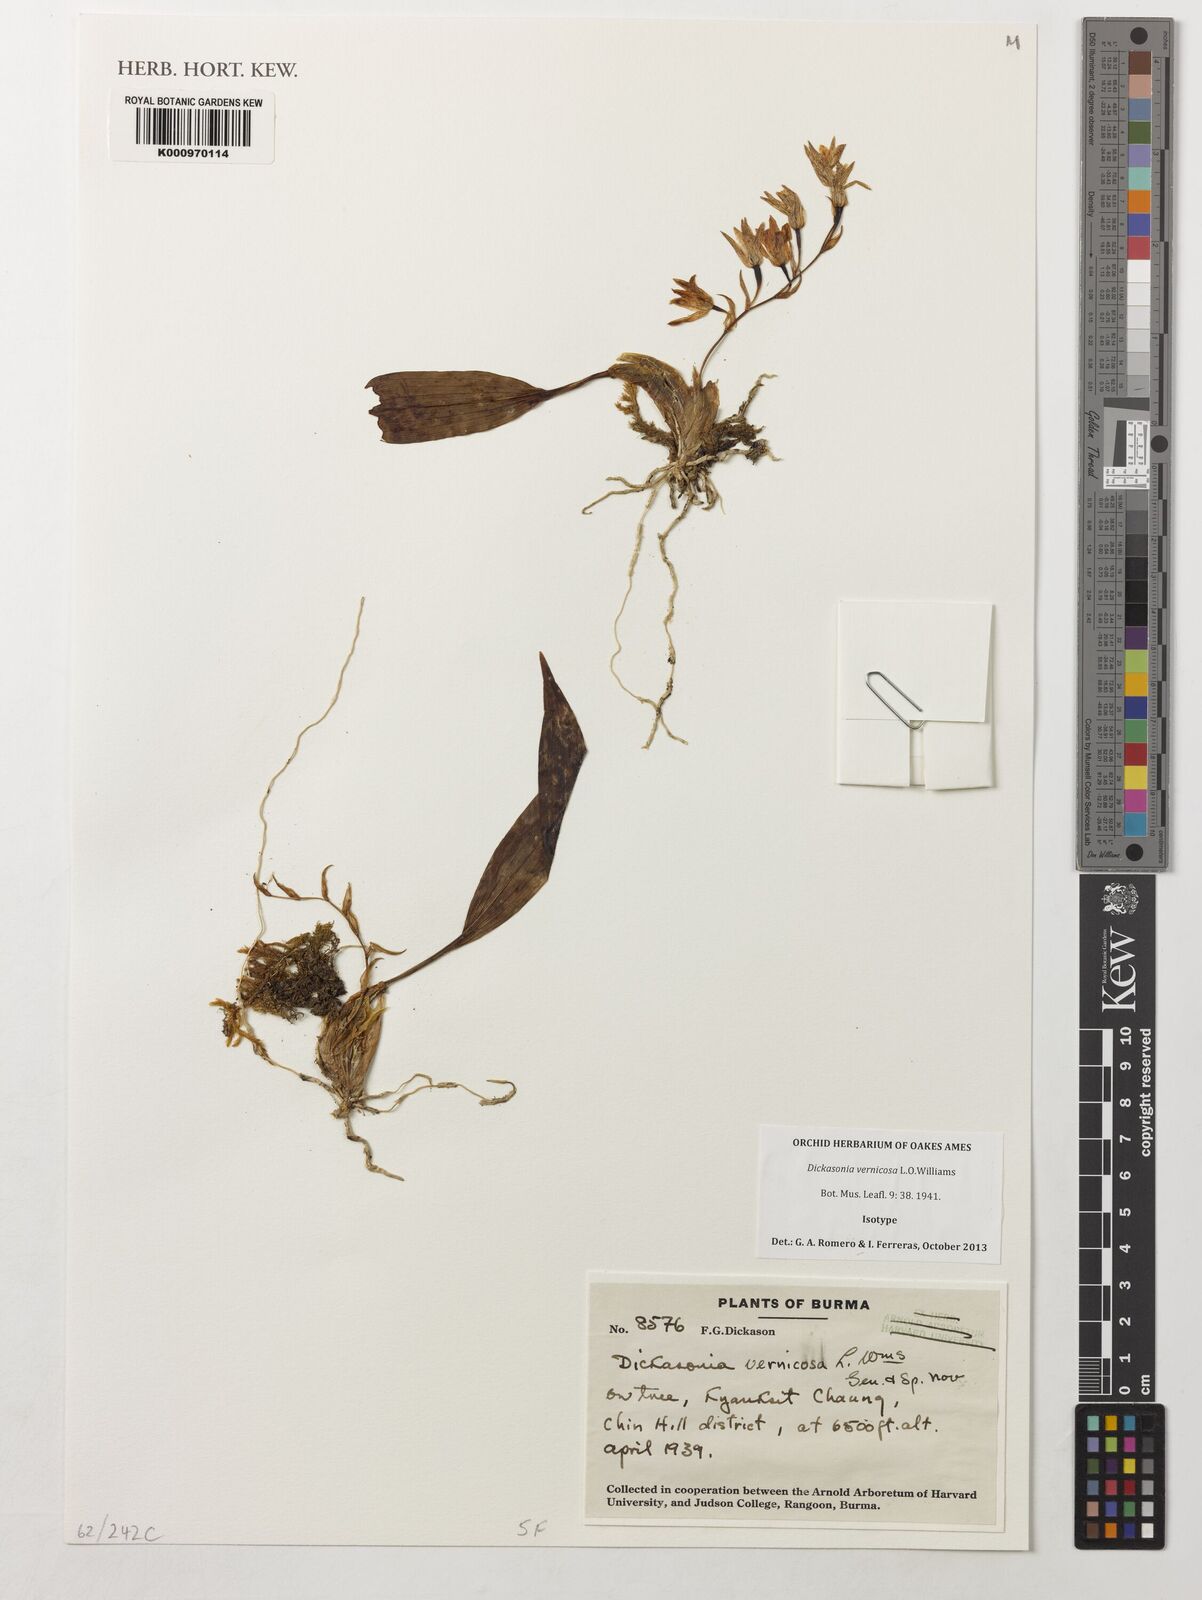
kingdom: Plantae
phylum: Tracheophyta
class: Liliopsida
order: Asparagales
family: Orchidaceae
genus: Coelogyne
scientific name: Coelogyne vernicosa
